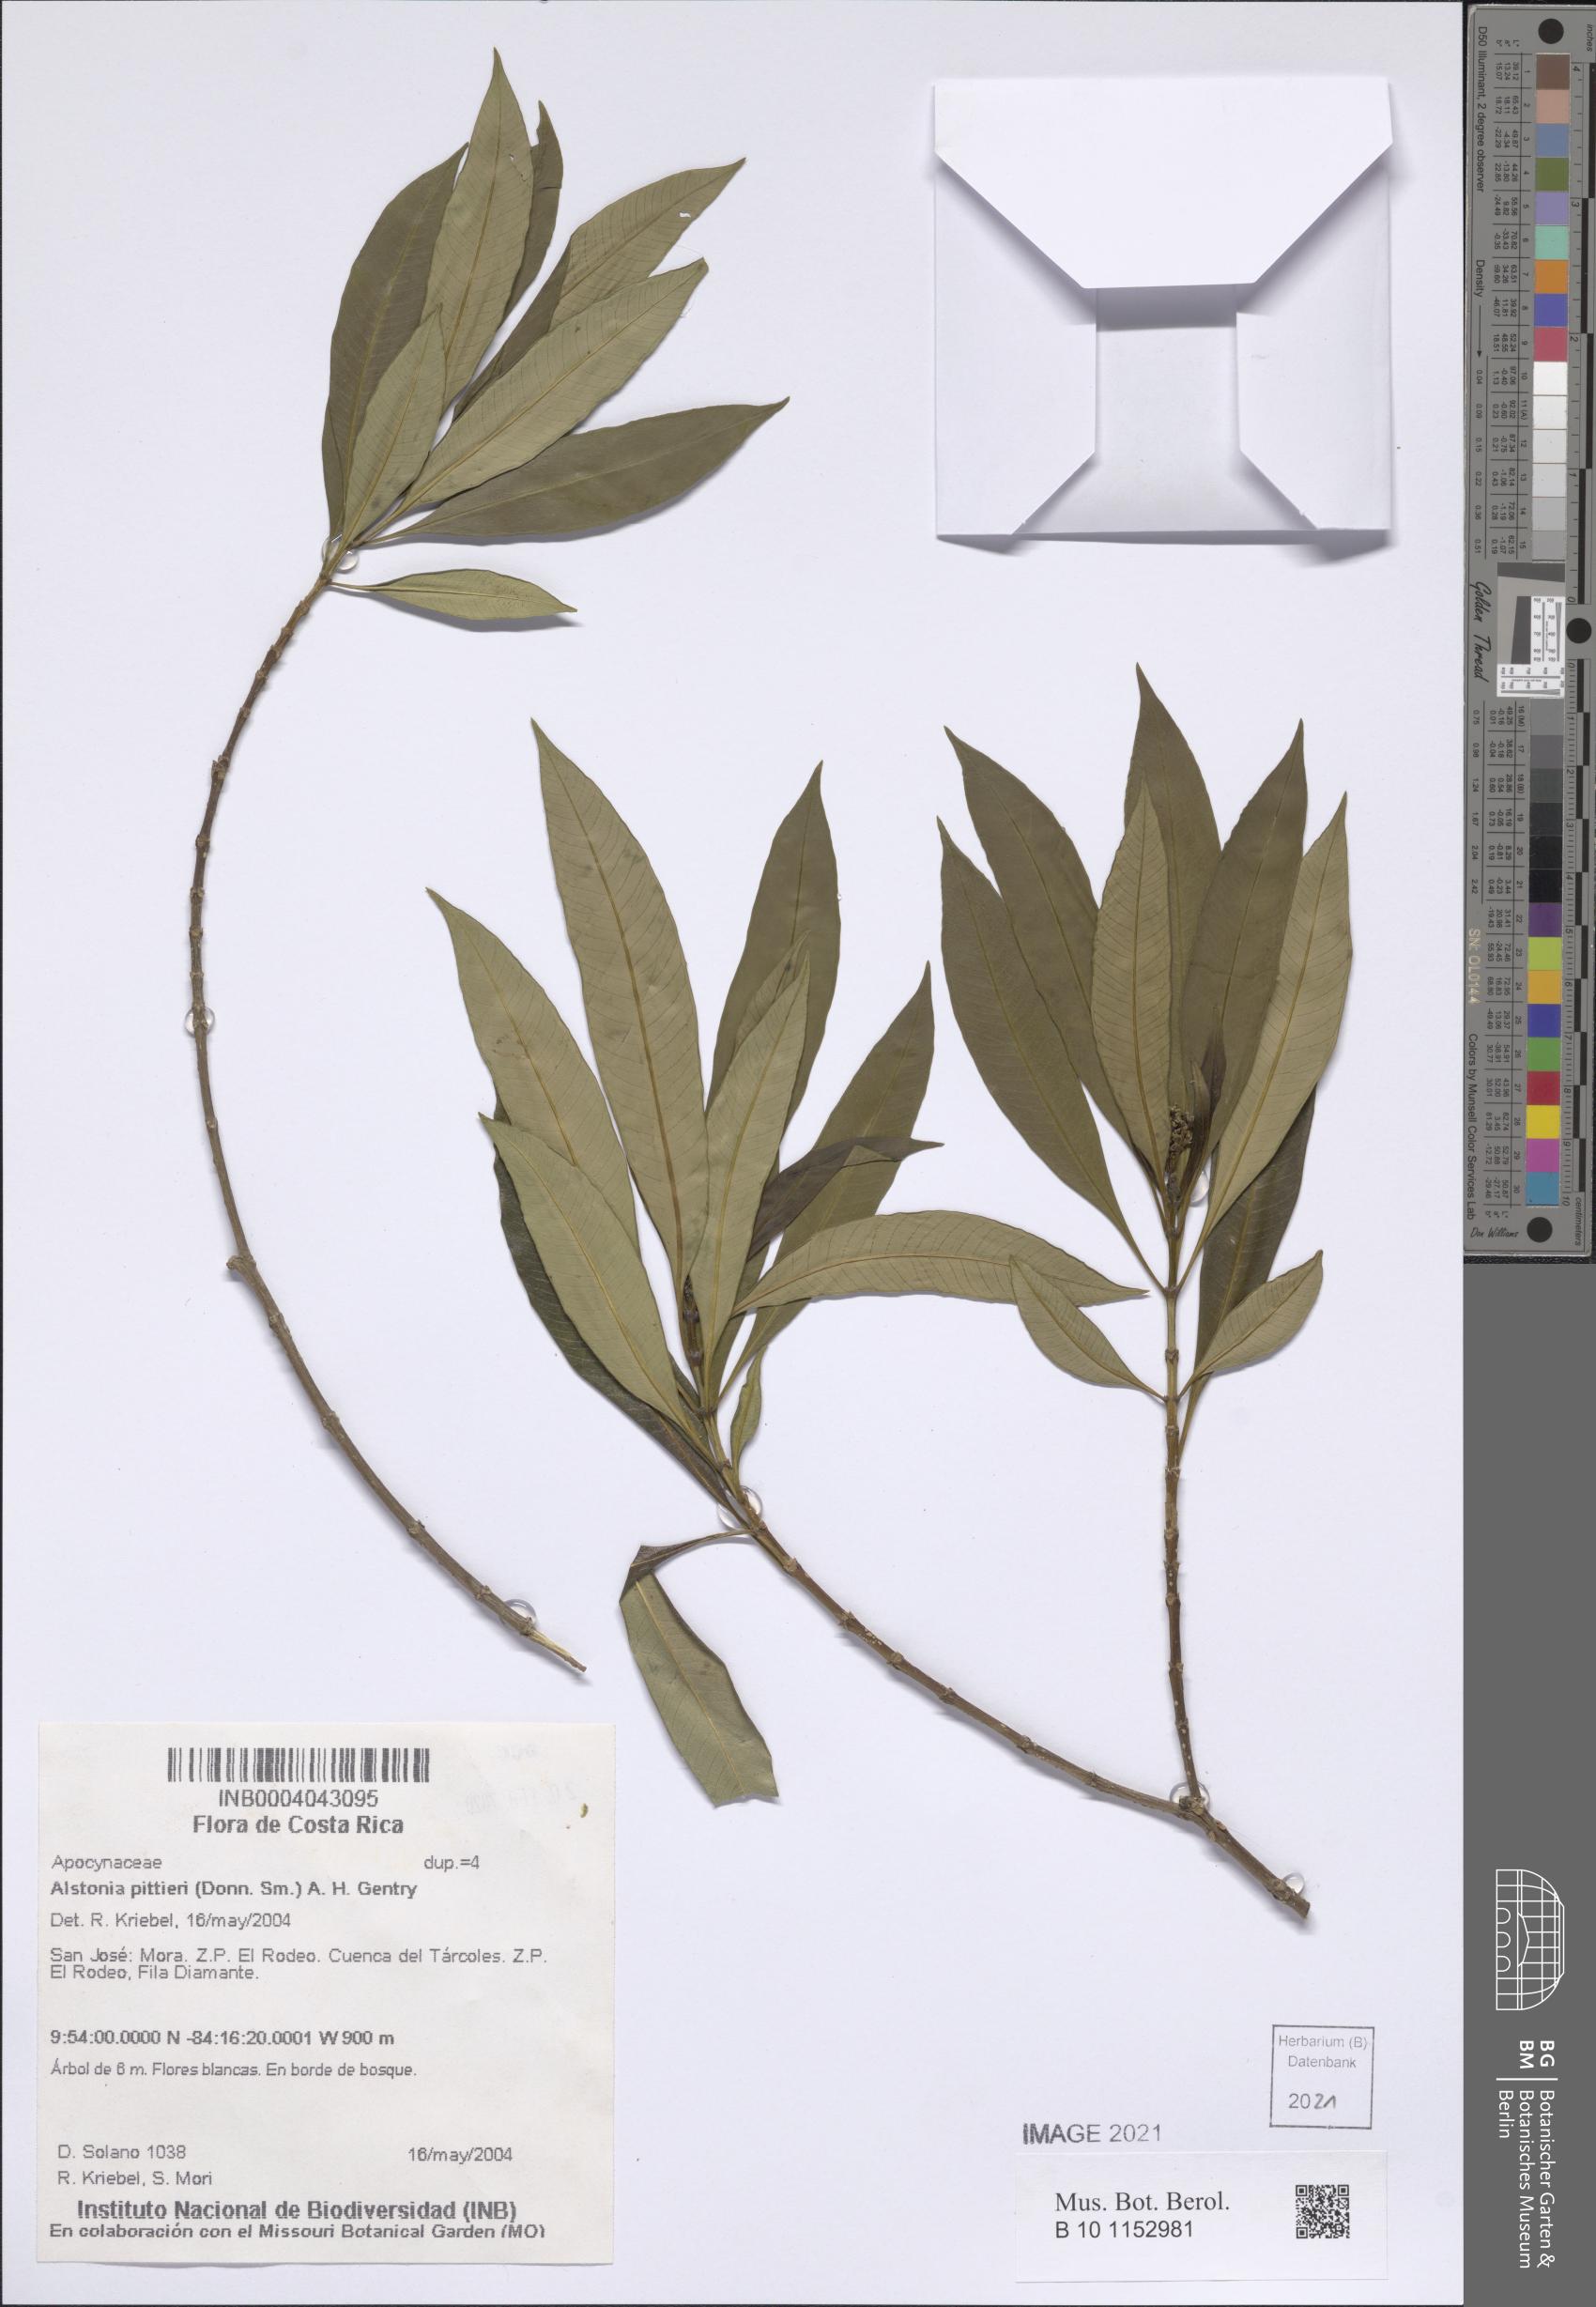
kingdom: Plantae
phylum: Tracheophyta
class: Magnoliopsida
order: Gentianales
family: Apocynaceae
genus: Tonduzia
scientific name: Tonduzia longifolia
